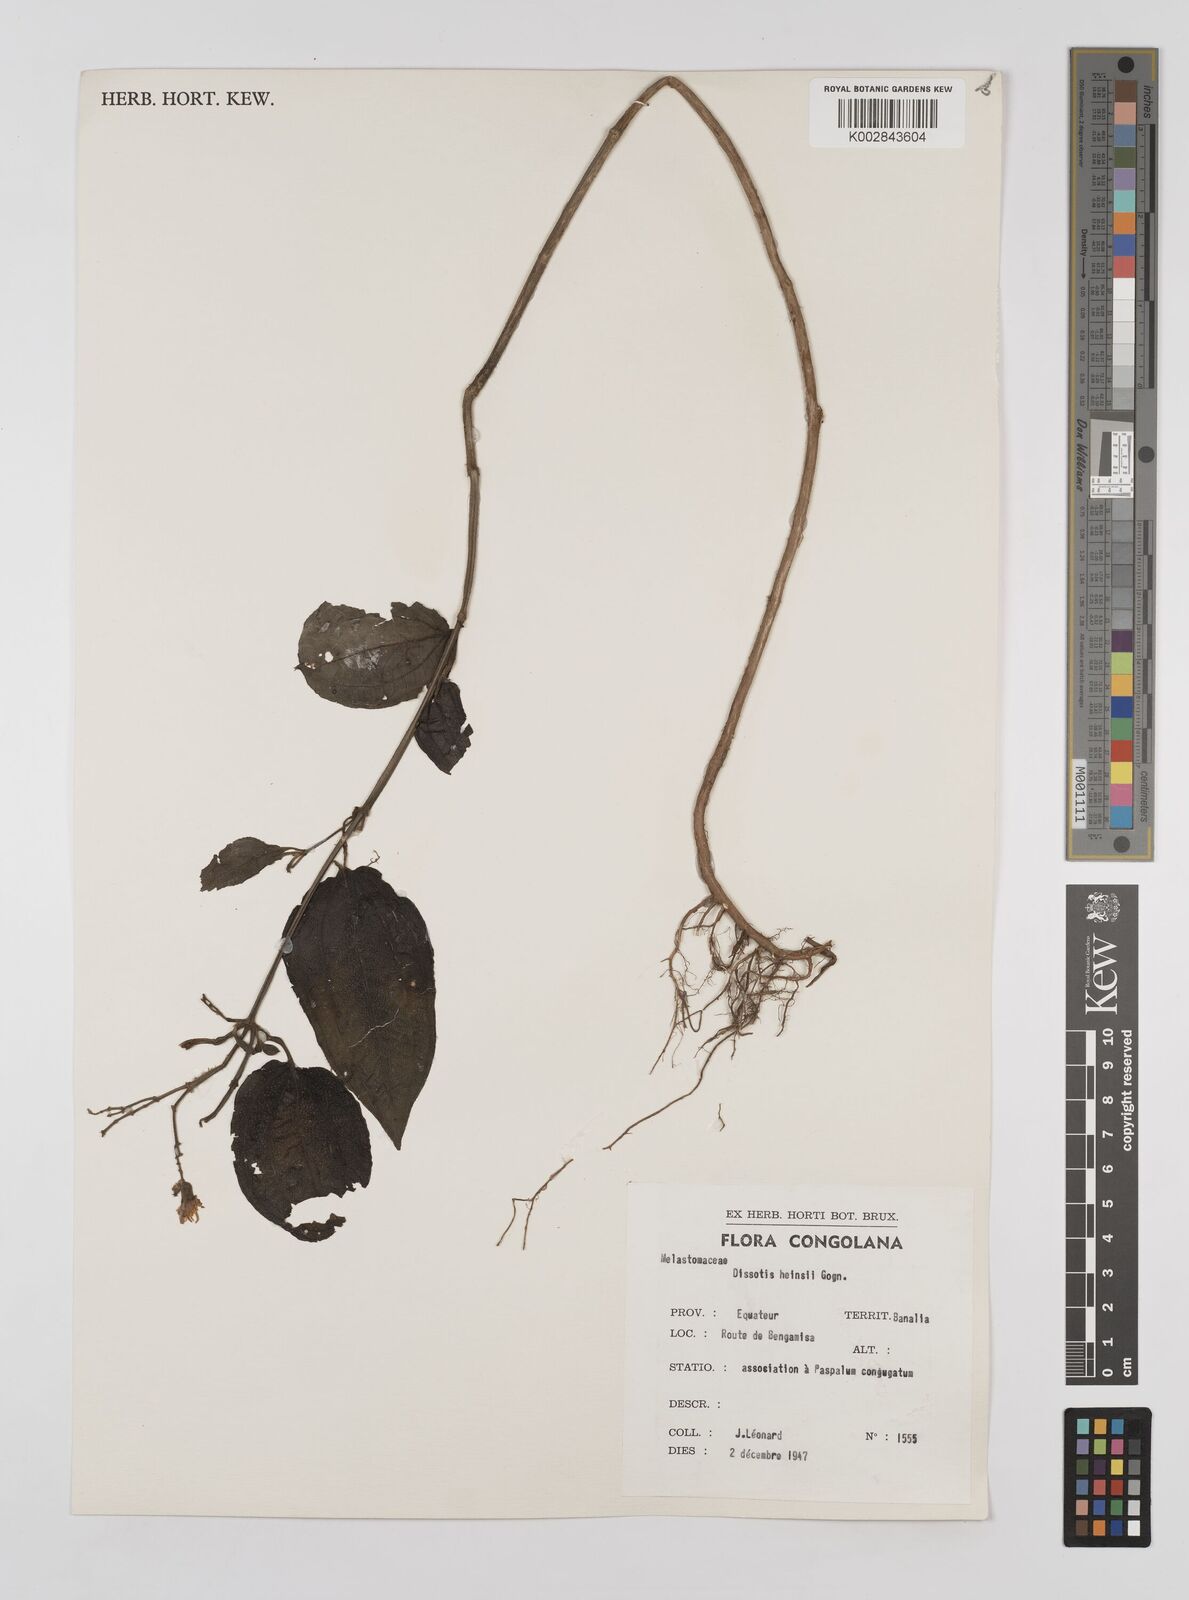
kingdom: Plantae
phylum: Tracheophyta
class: Magnoliopsida
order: Myrtales
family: Melastomataceae
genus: Dupineta
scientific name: Dupineta hensii
